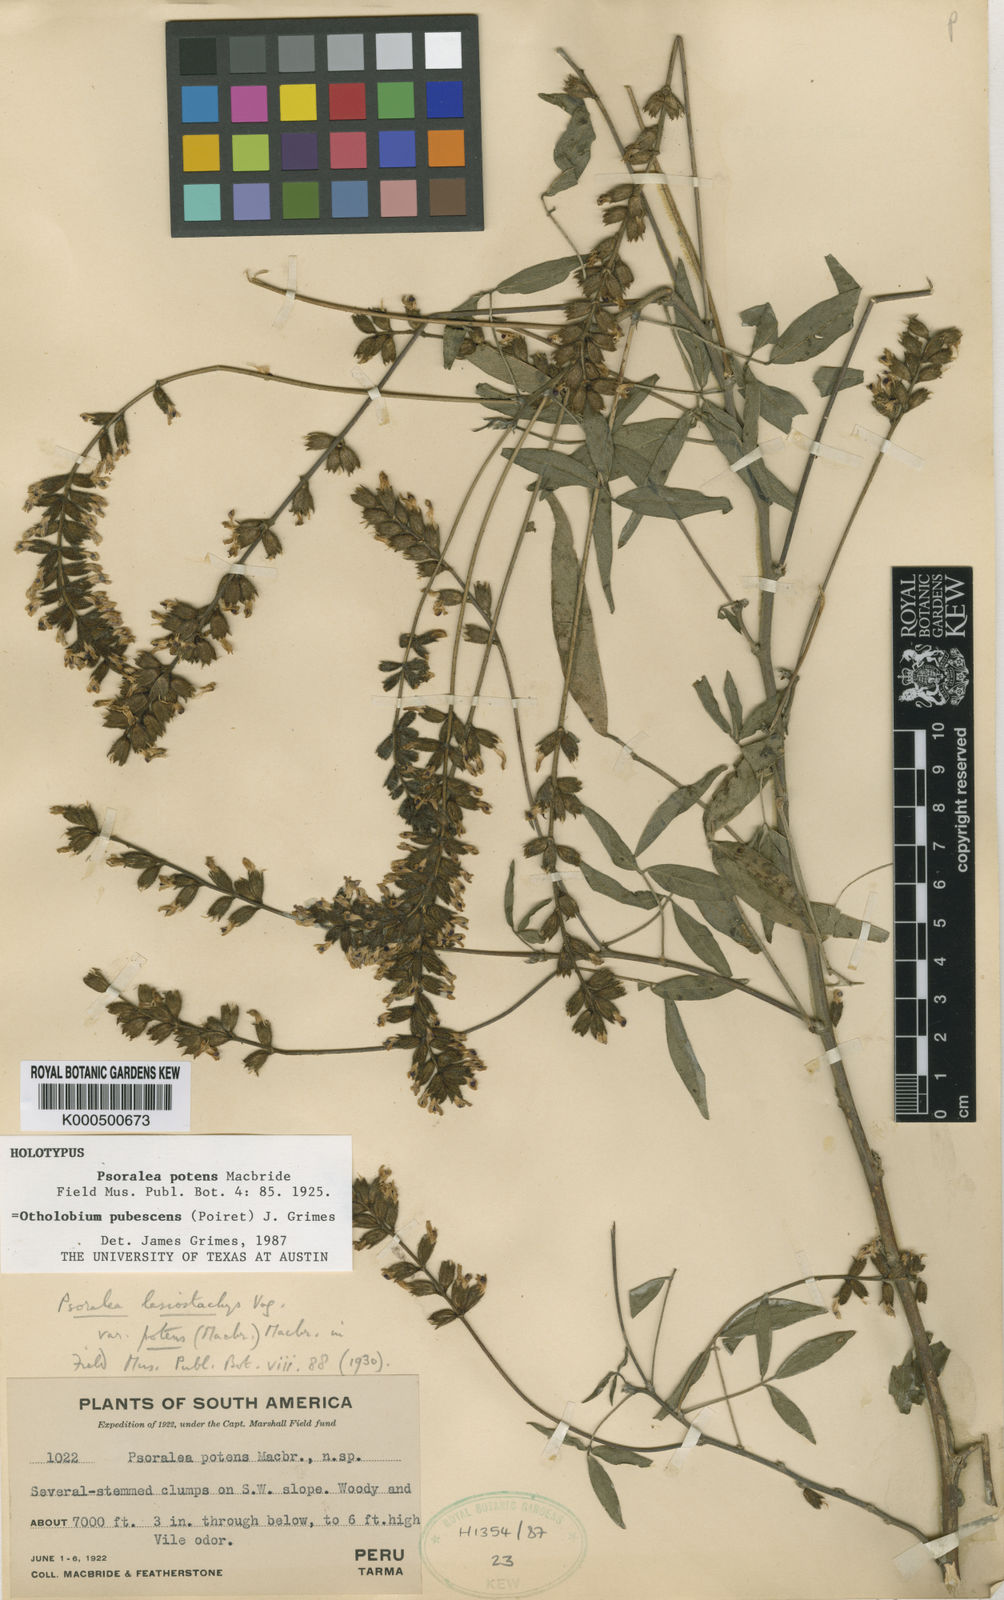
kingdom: Plantae
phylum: Tracheophyta
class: Magnoliopsida
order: Fabales
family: Fabaceae
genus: Psoralea
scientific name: Psoralea Otholobium pubescens
